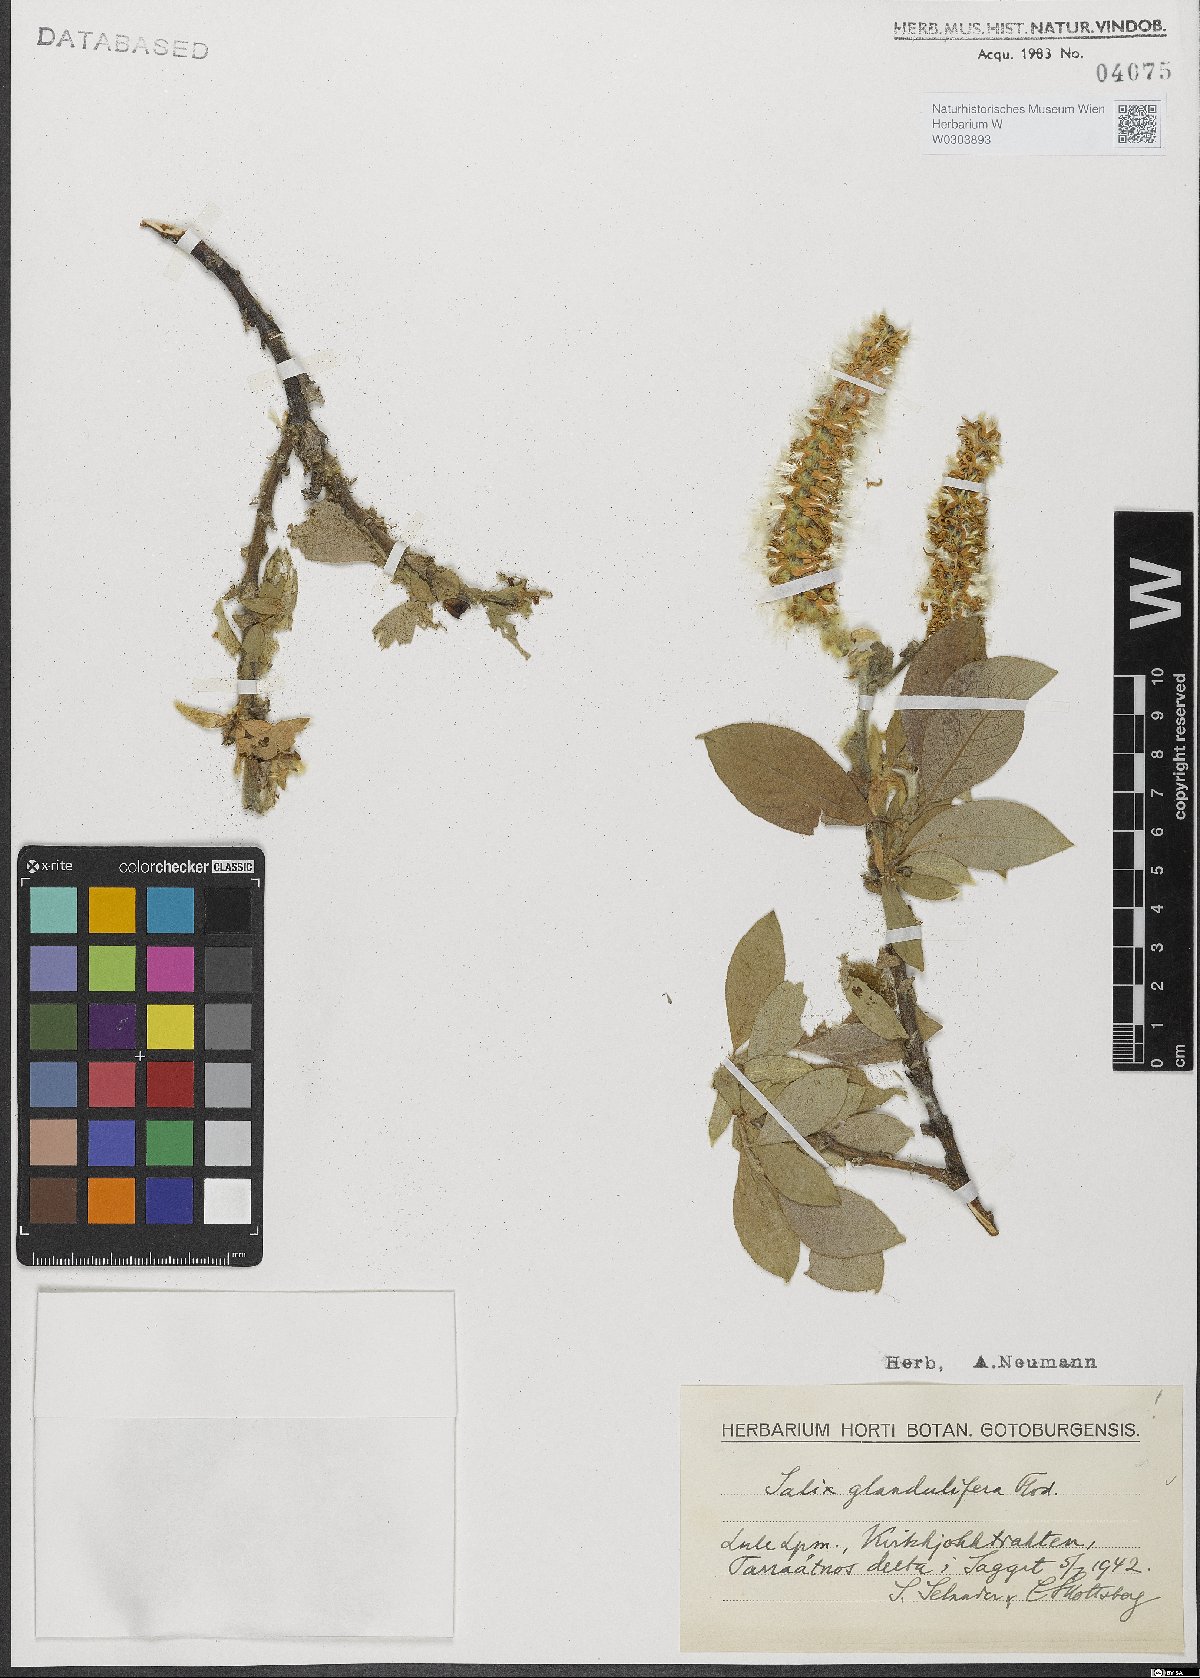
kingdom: Plantae
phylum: Tracheophyta
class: Magnoliopsida
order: Malpighiales
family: Salicaceae
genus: Salix
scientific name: Salix lanata
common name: Woolly willow
